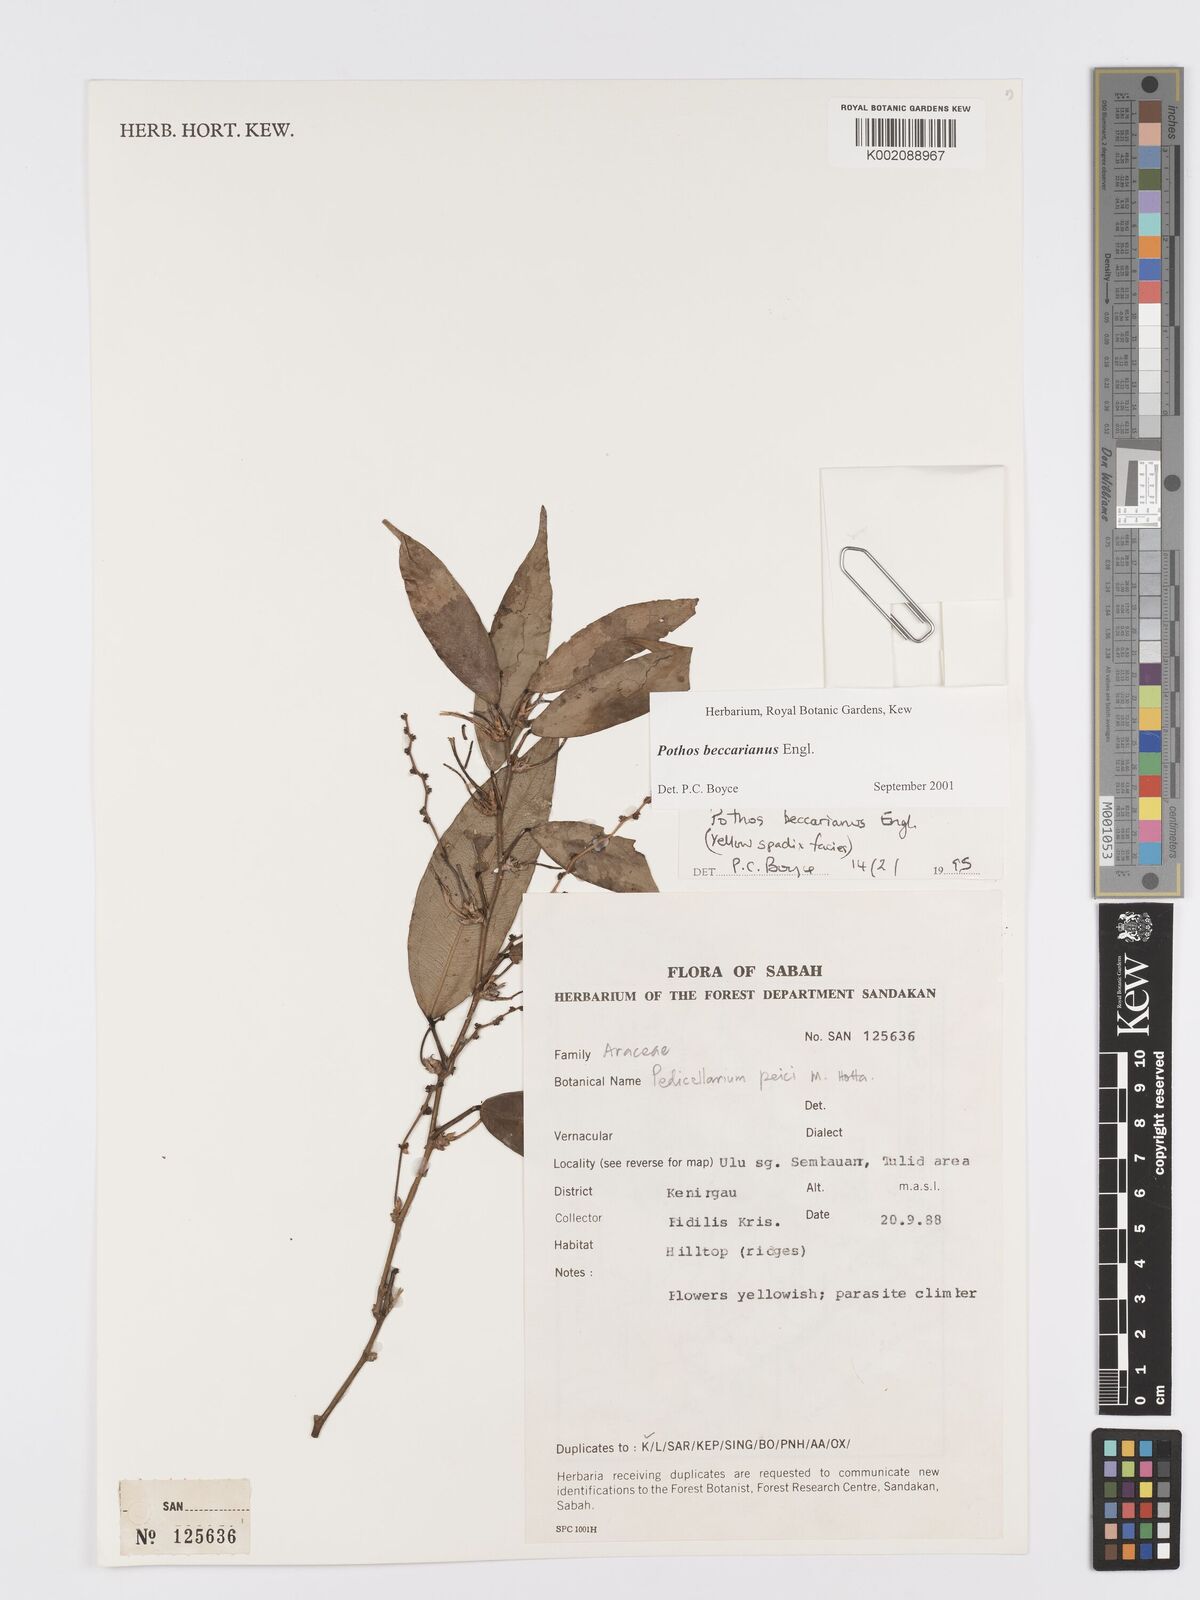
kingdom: Plantae
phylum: Tracheophyta
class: Liliopsida
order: Alismatales
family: Araceae
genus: Pothos
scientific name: Pothos beccarianus
